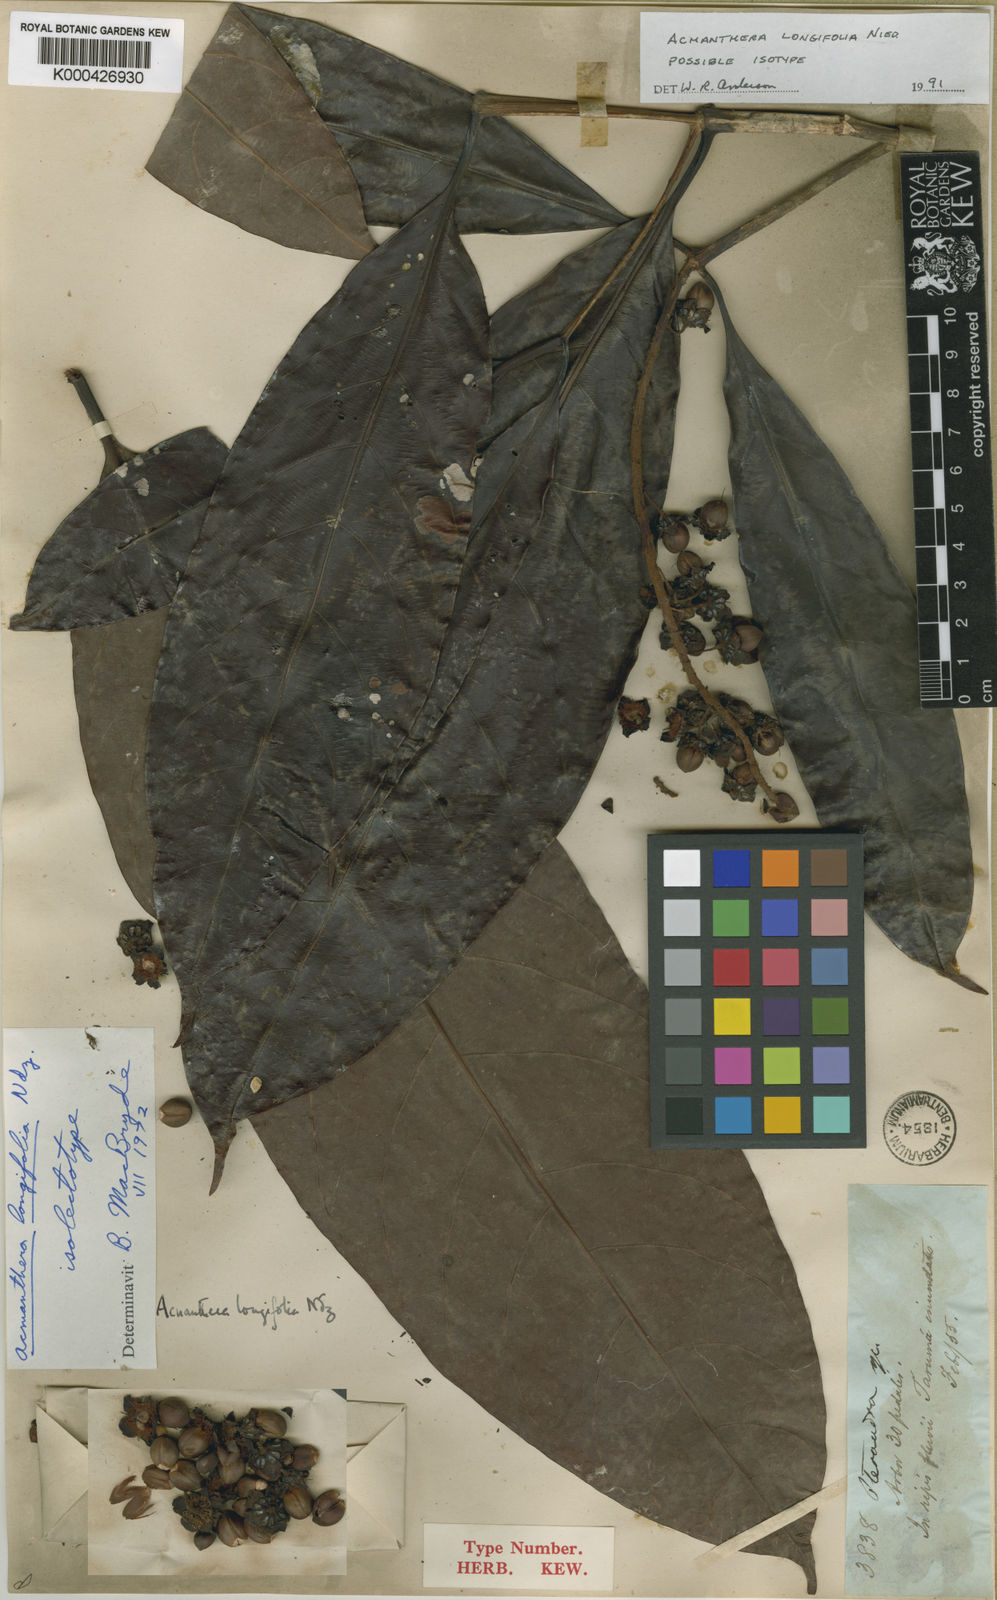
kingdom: Plantae
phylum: Tracheophyta
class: Magnoliopsida
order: Malpighiales
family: Malpighiaceae
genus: Acmanthera
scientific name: Acmanthera longifolia
